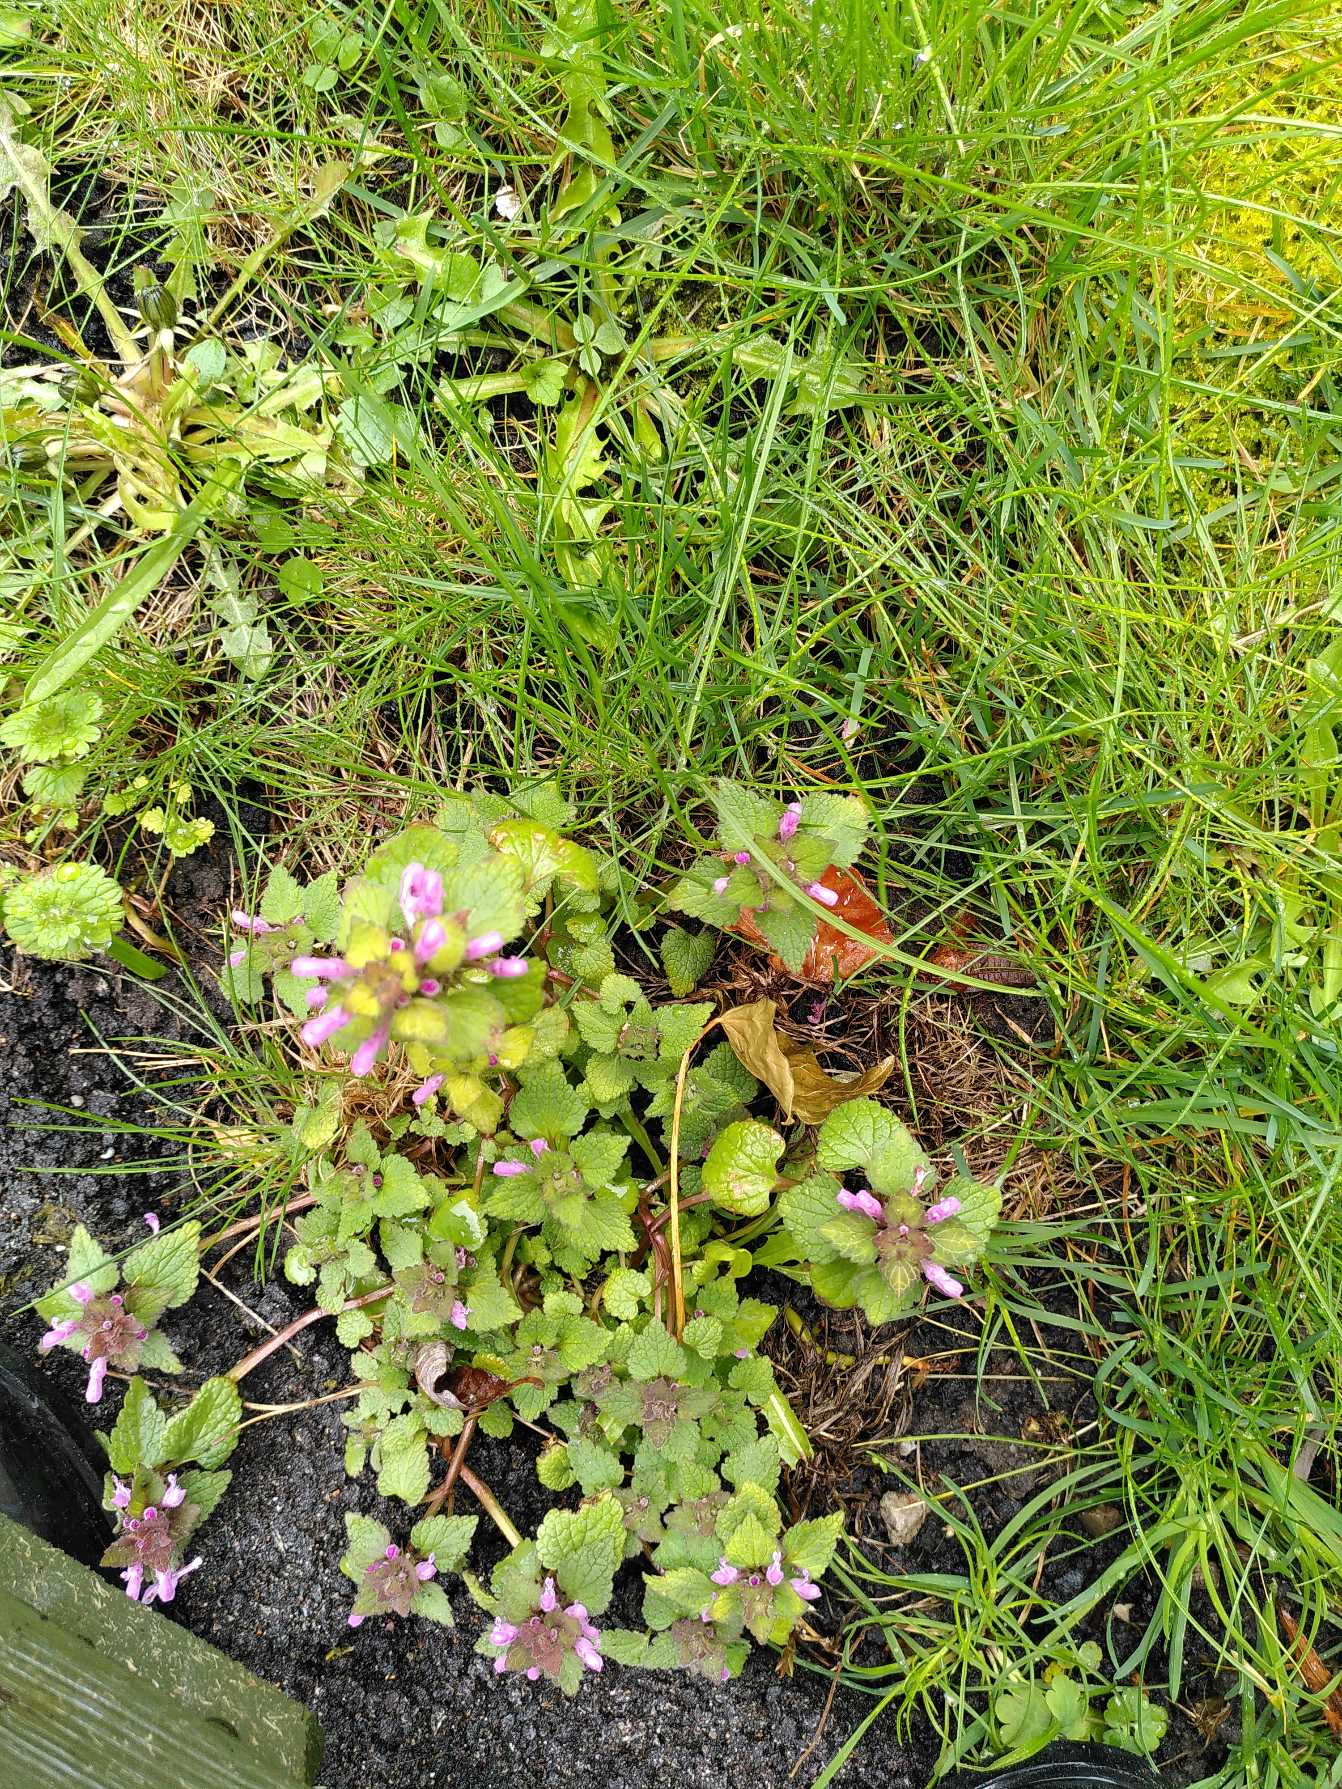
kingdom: Plantae
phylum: Tracheophyta
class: Magnoliopsida
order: Lamiales
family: Lamiaceae
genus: Lamium
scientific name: Lamium purpureum
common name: Rød tvetand
